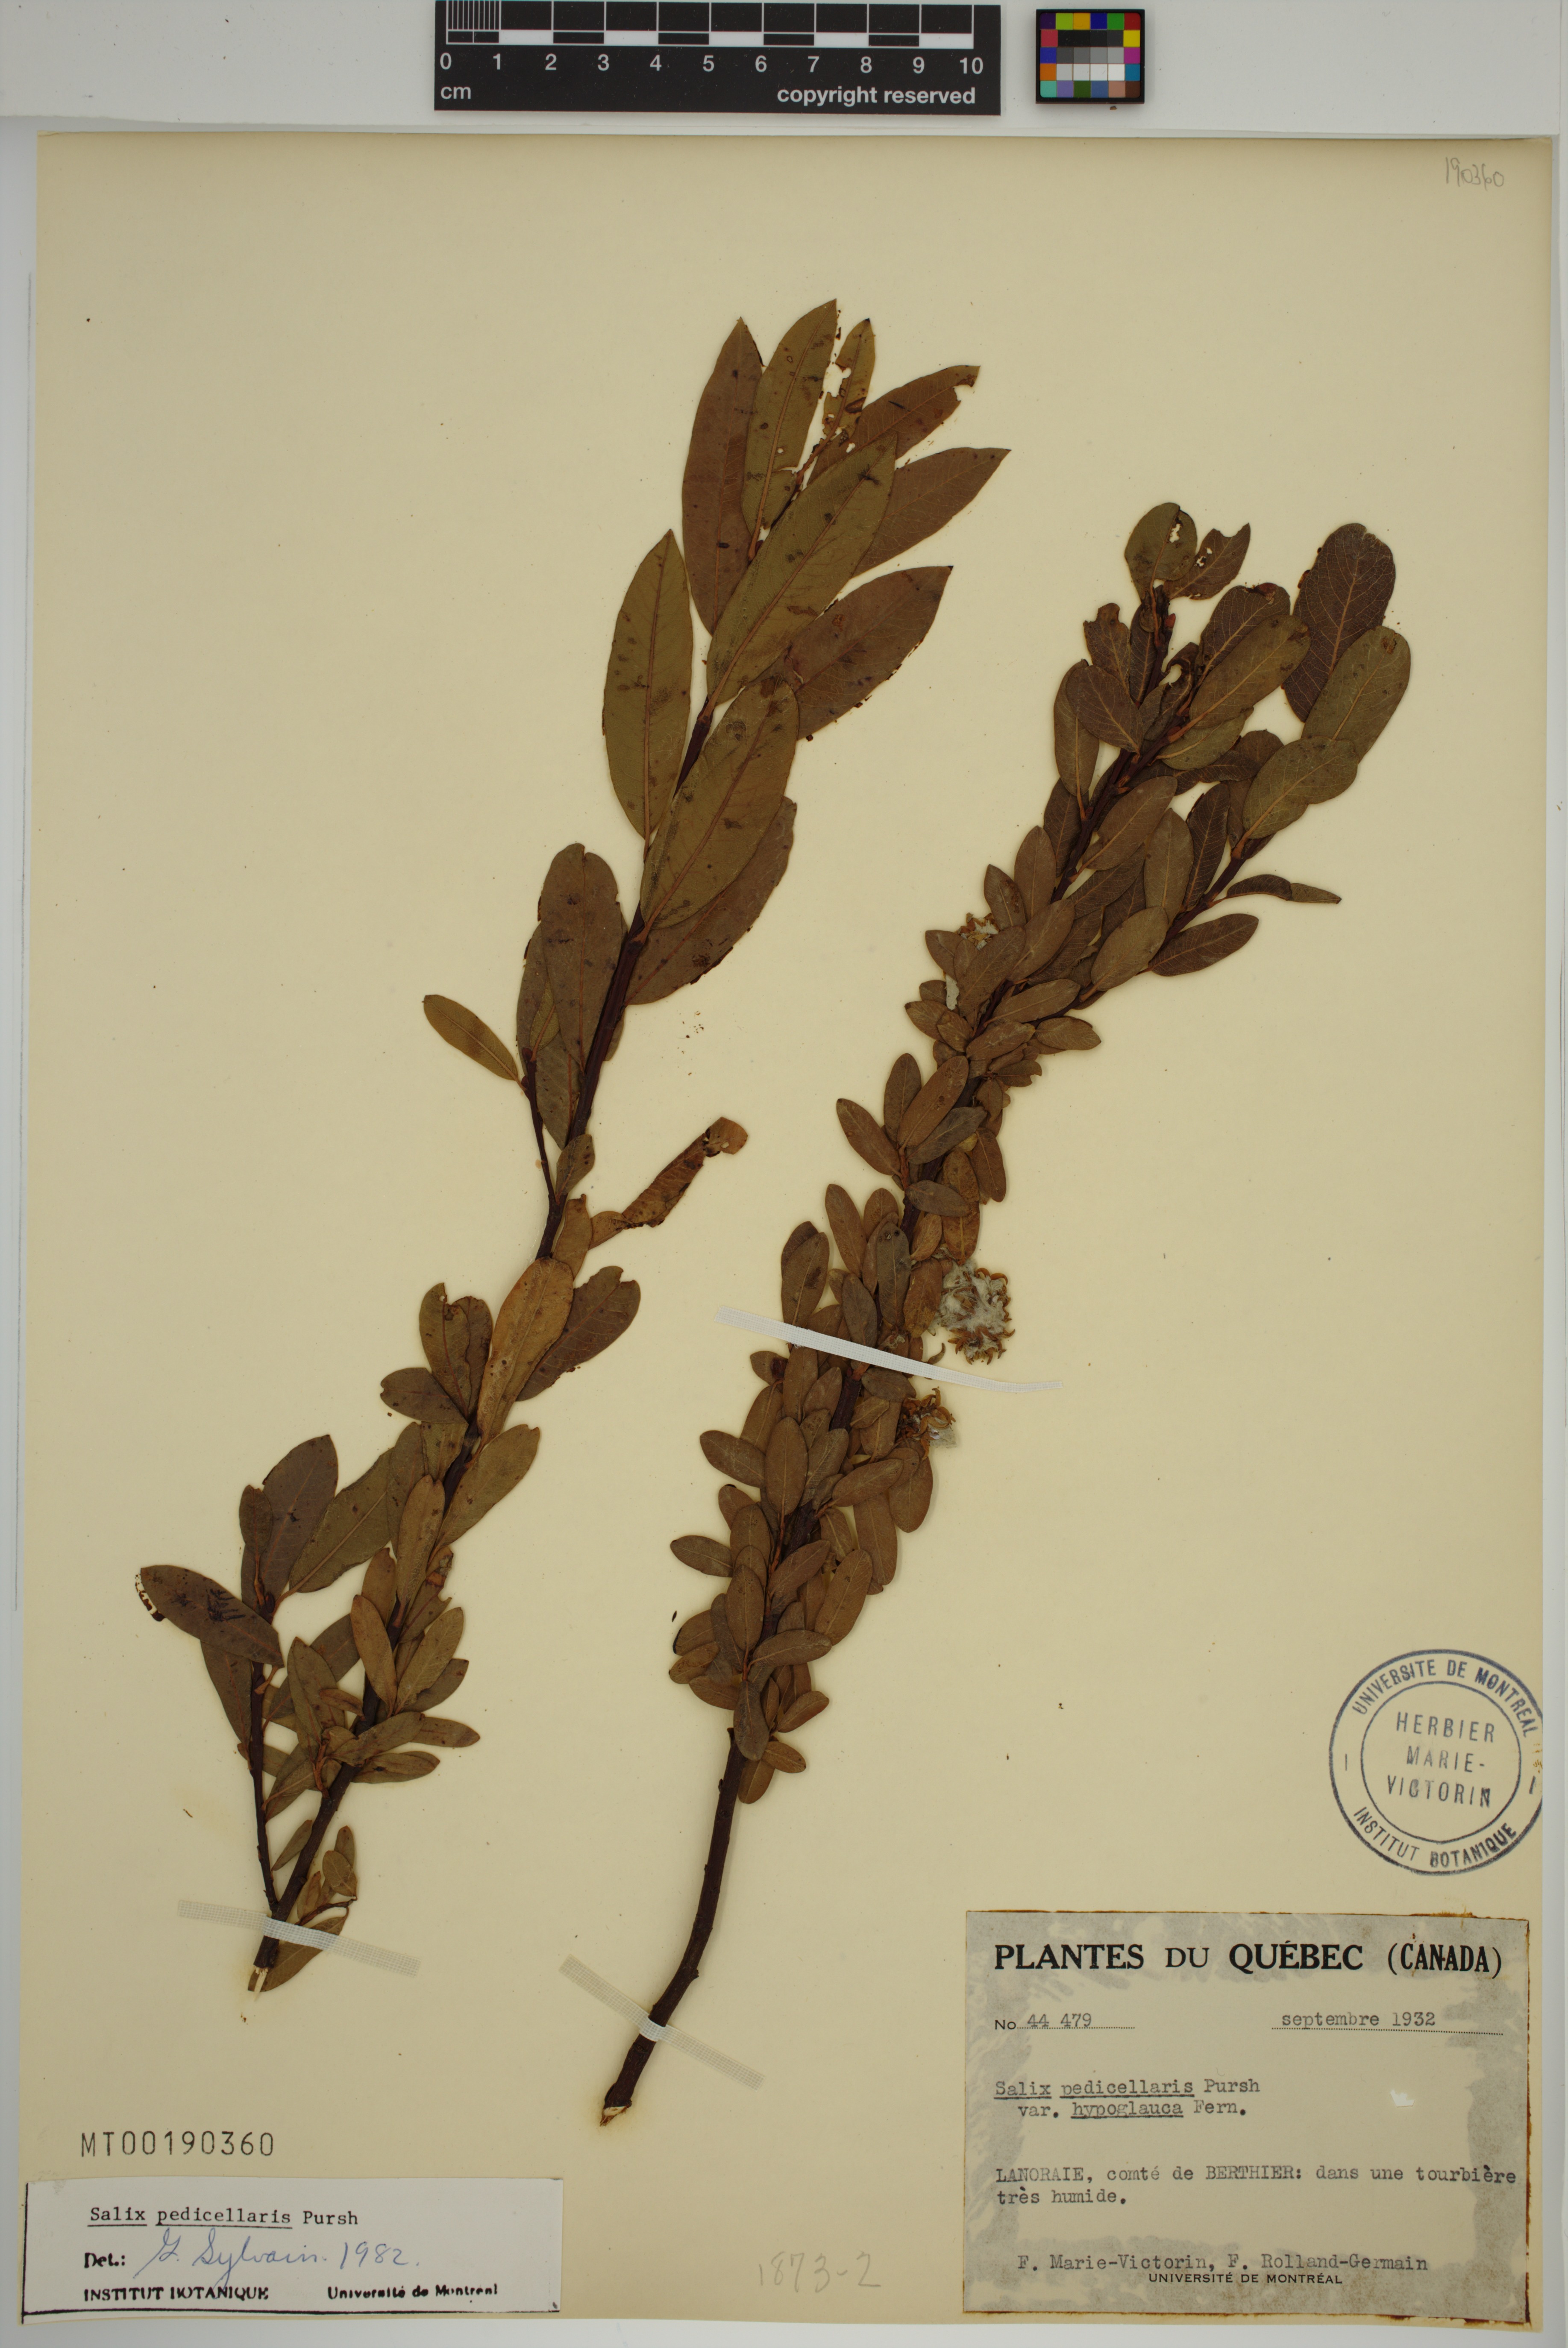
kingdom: Plantae
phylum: Tracheophyta
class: Magnoliopsida
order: Malpighiales
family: Salicaceae
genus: Salix
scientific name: Salix pedicellaris
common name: Bog willow
